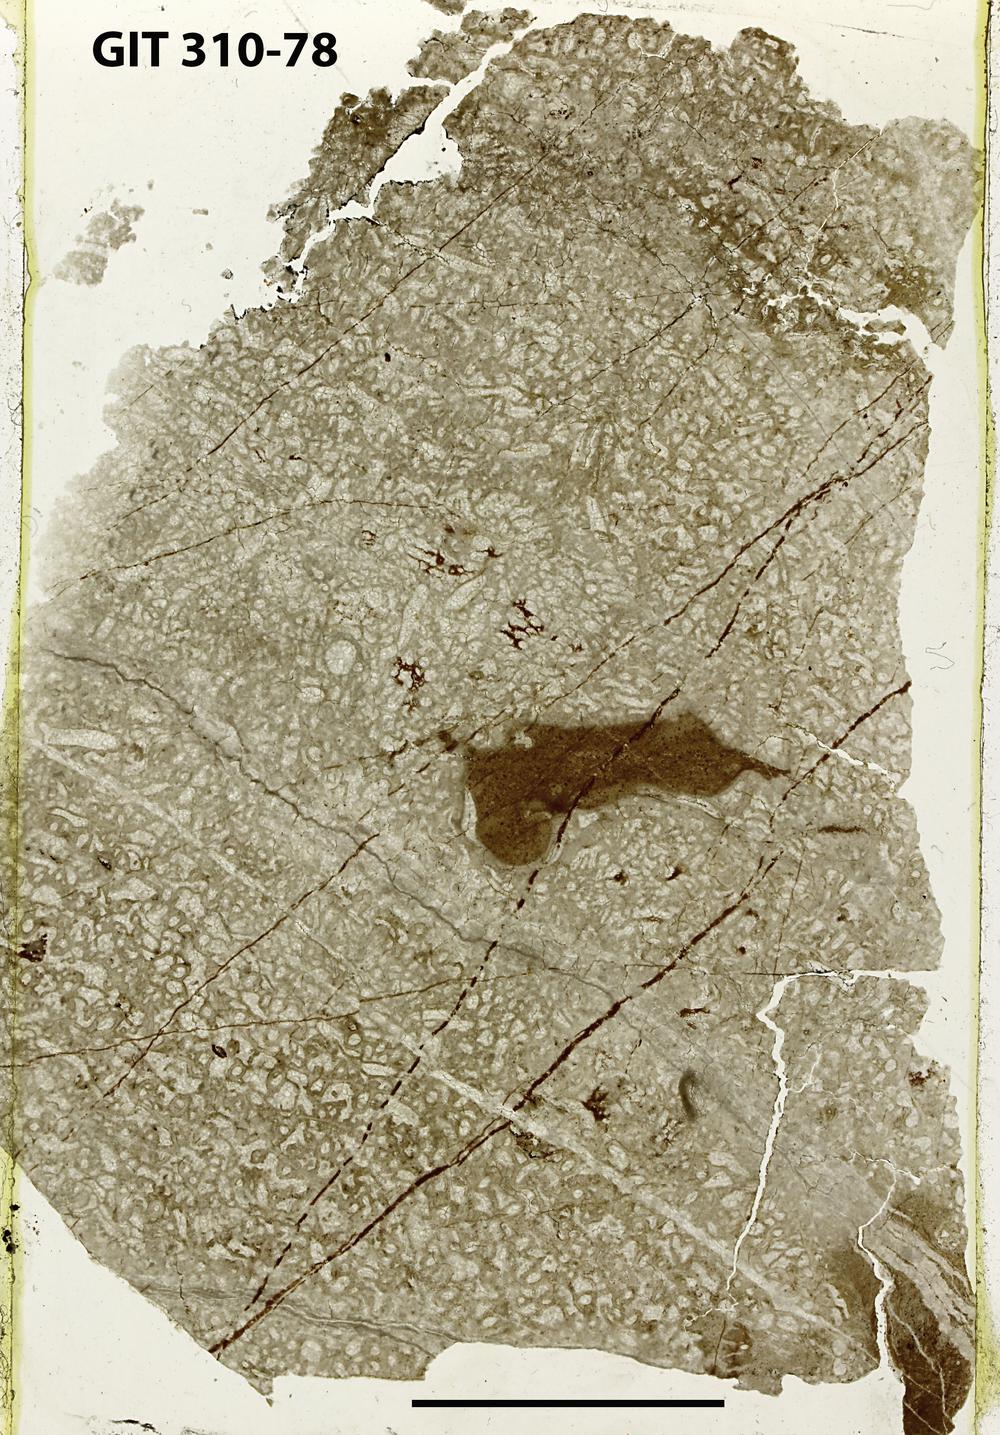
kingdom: Animalia
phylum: Porifera
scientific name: Porifera
